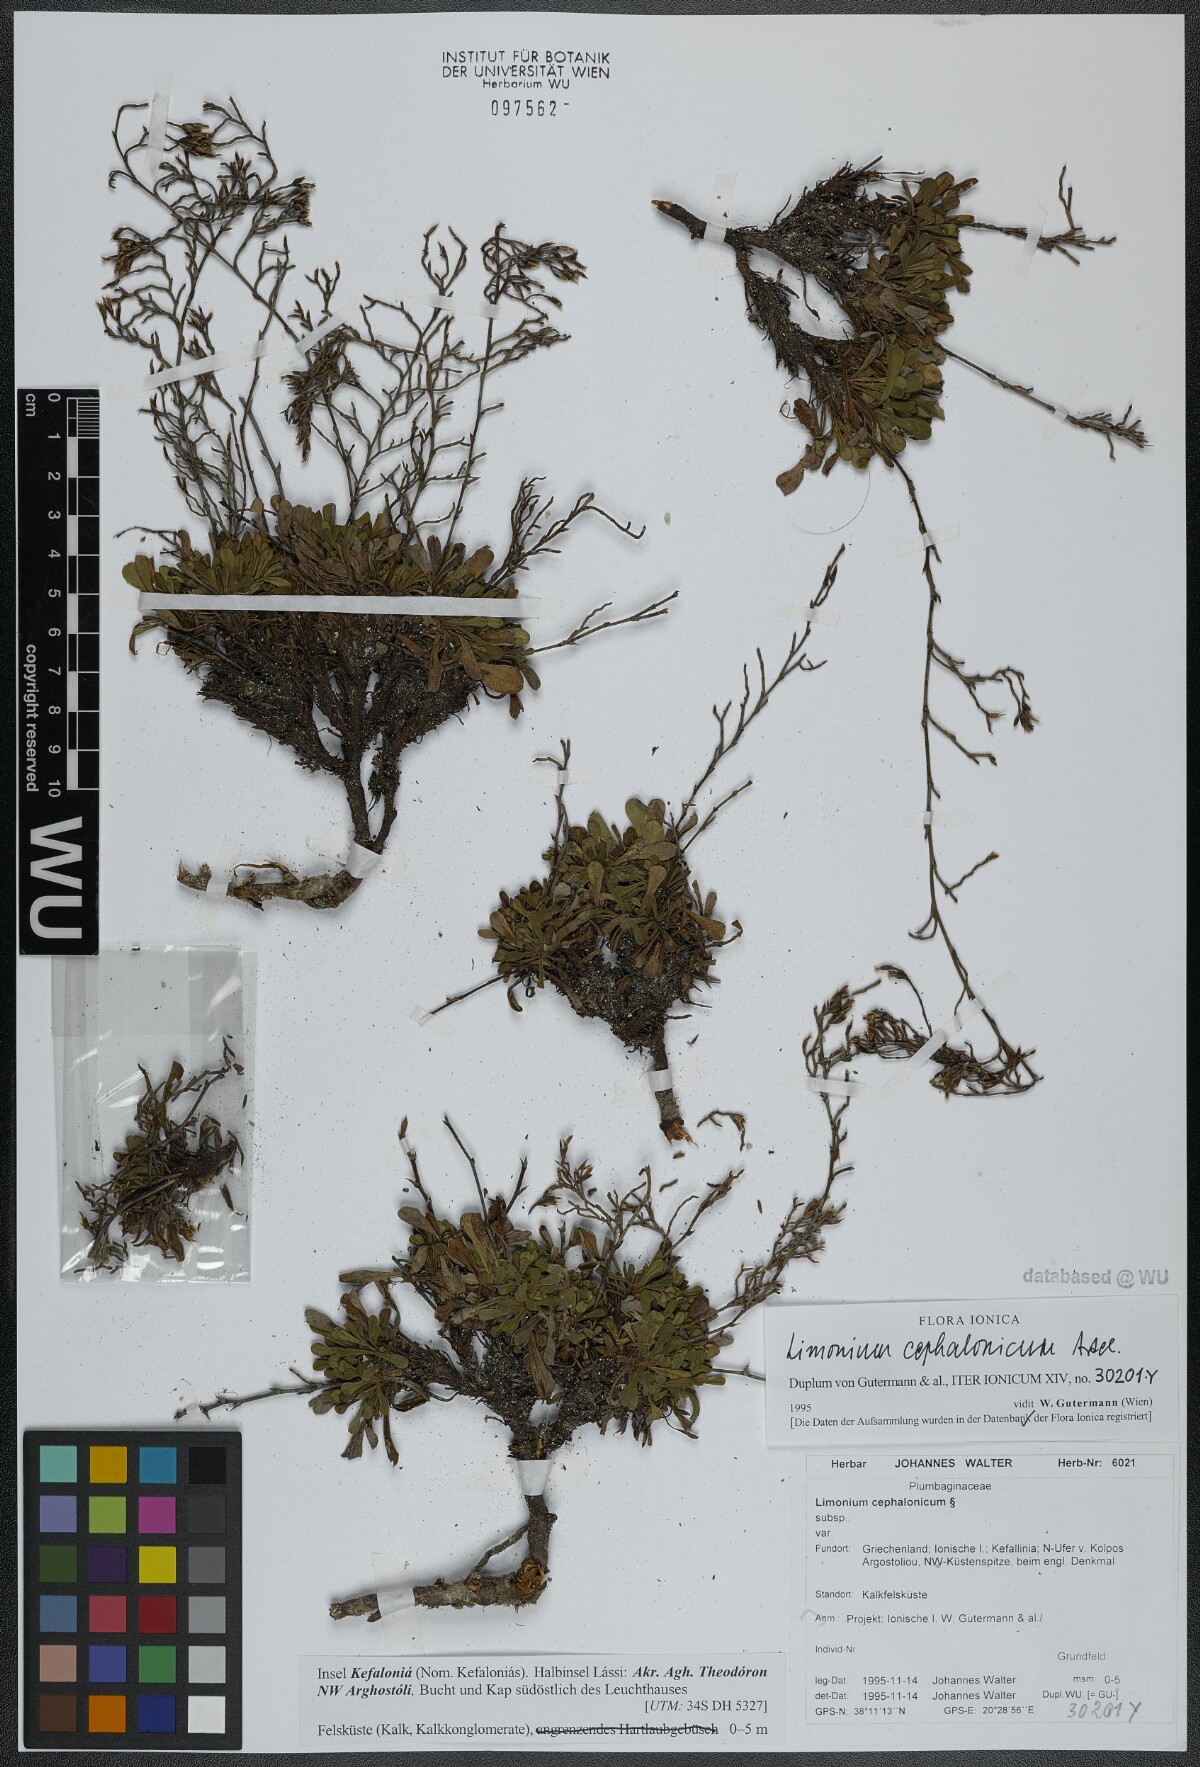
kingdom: Plantae
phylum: Tracheophyta
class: Magnoliopsida
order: Caryophyllales
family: Plumbaginaceae
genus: Limonium
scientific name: Limonium cephalonicum
